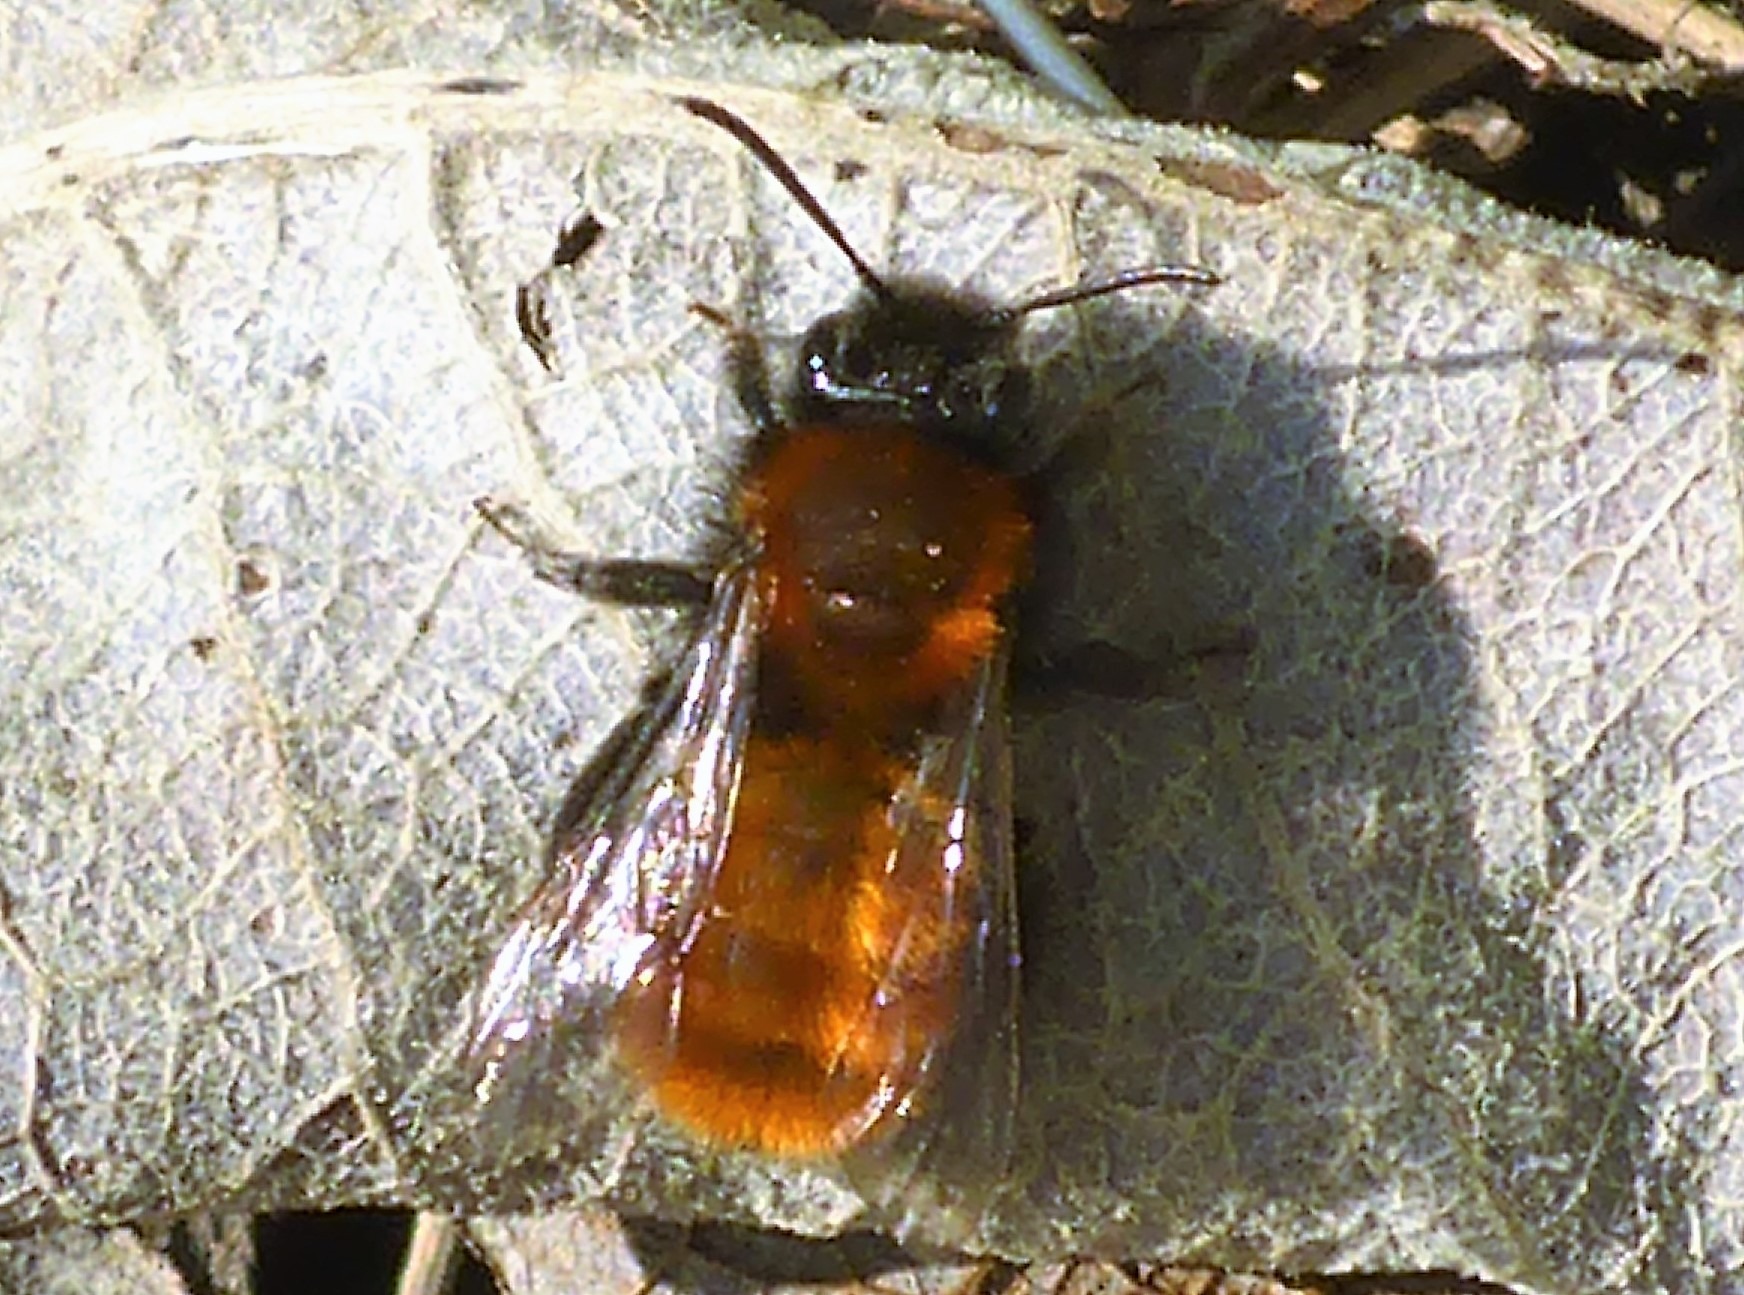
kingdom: Animalia
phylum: Arthropoda
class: Insecta
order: Hymenoptera
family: Andrenidae
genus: Andrena
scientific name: Andrena fulva
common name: Rødpelset jordbi
